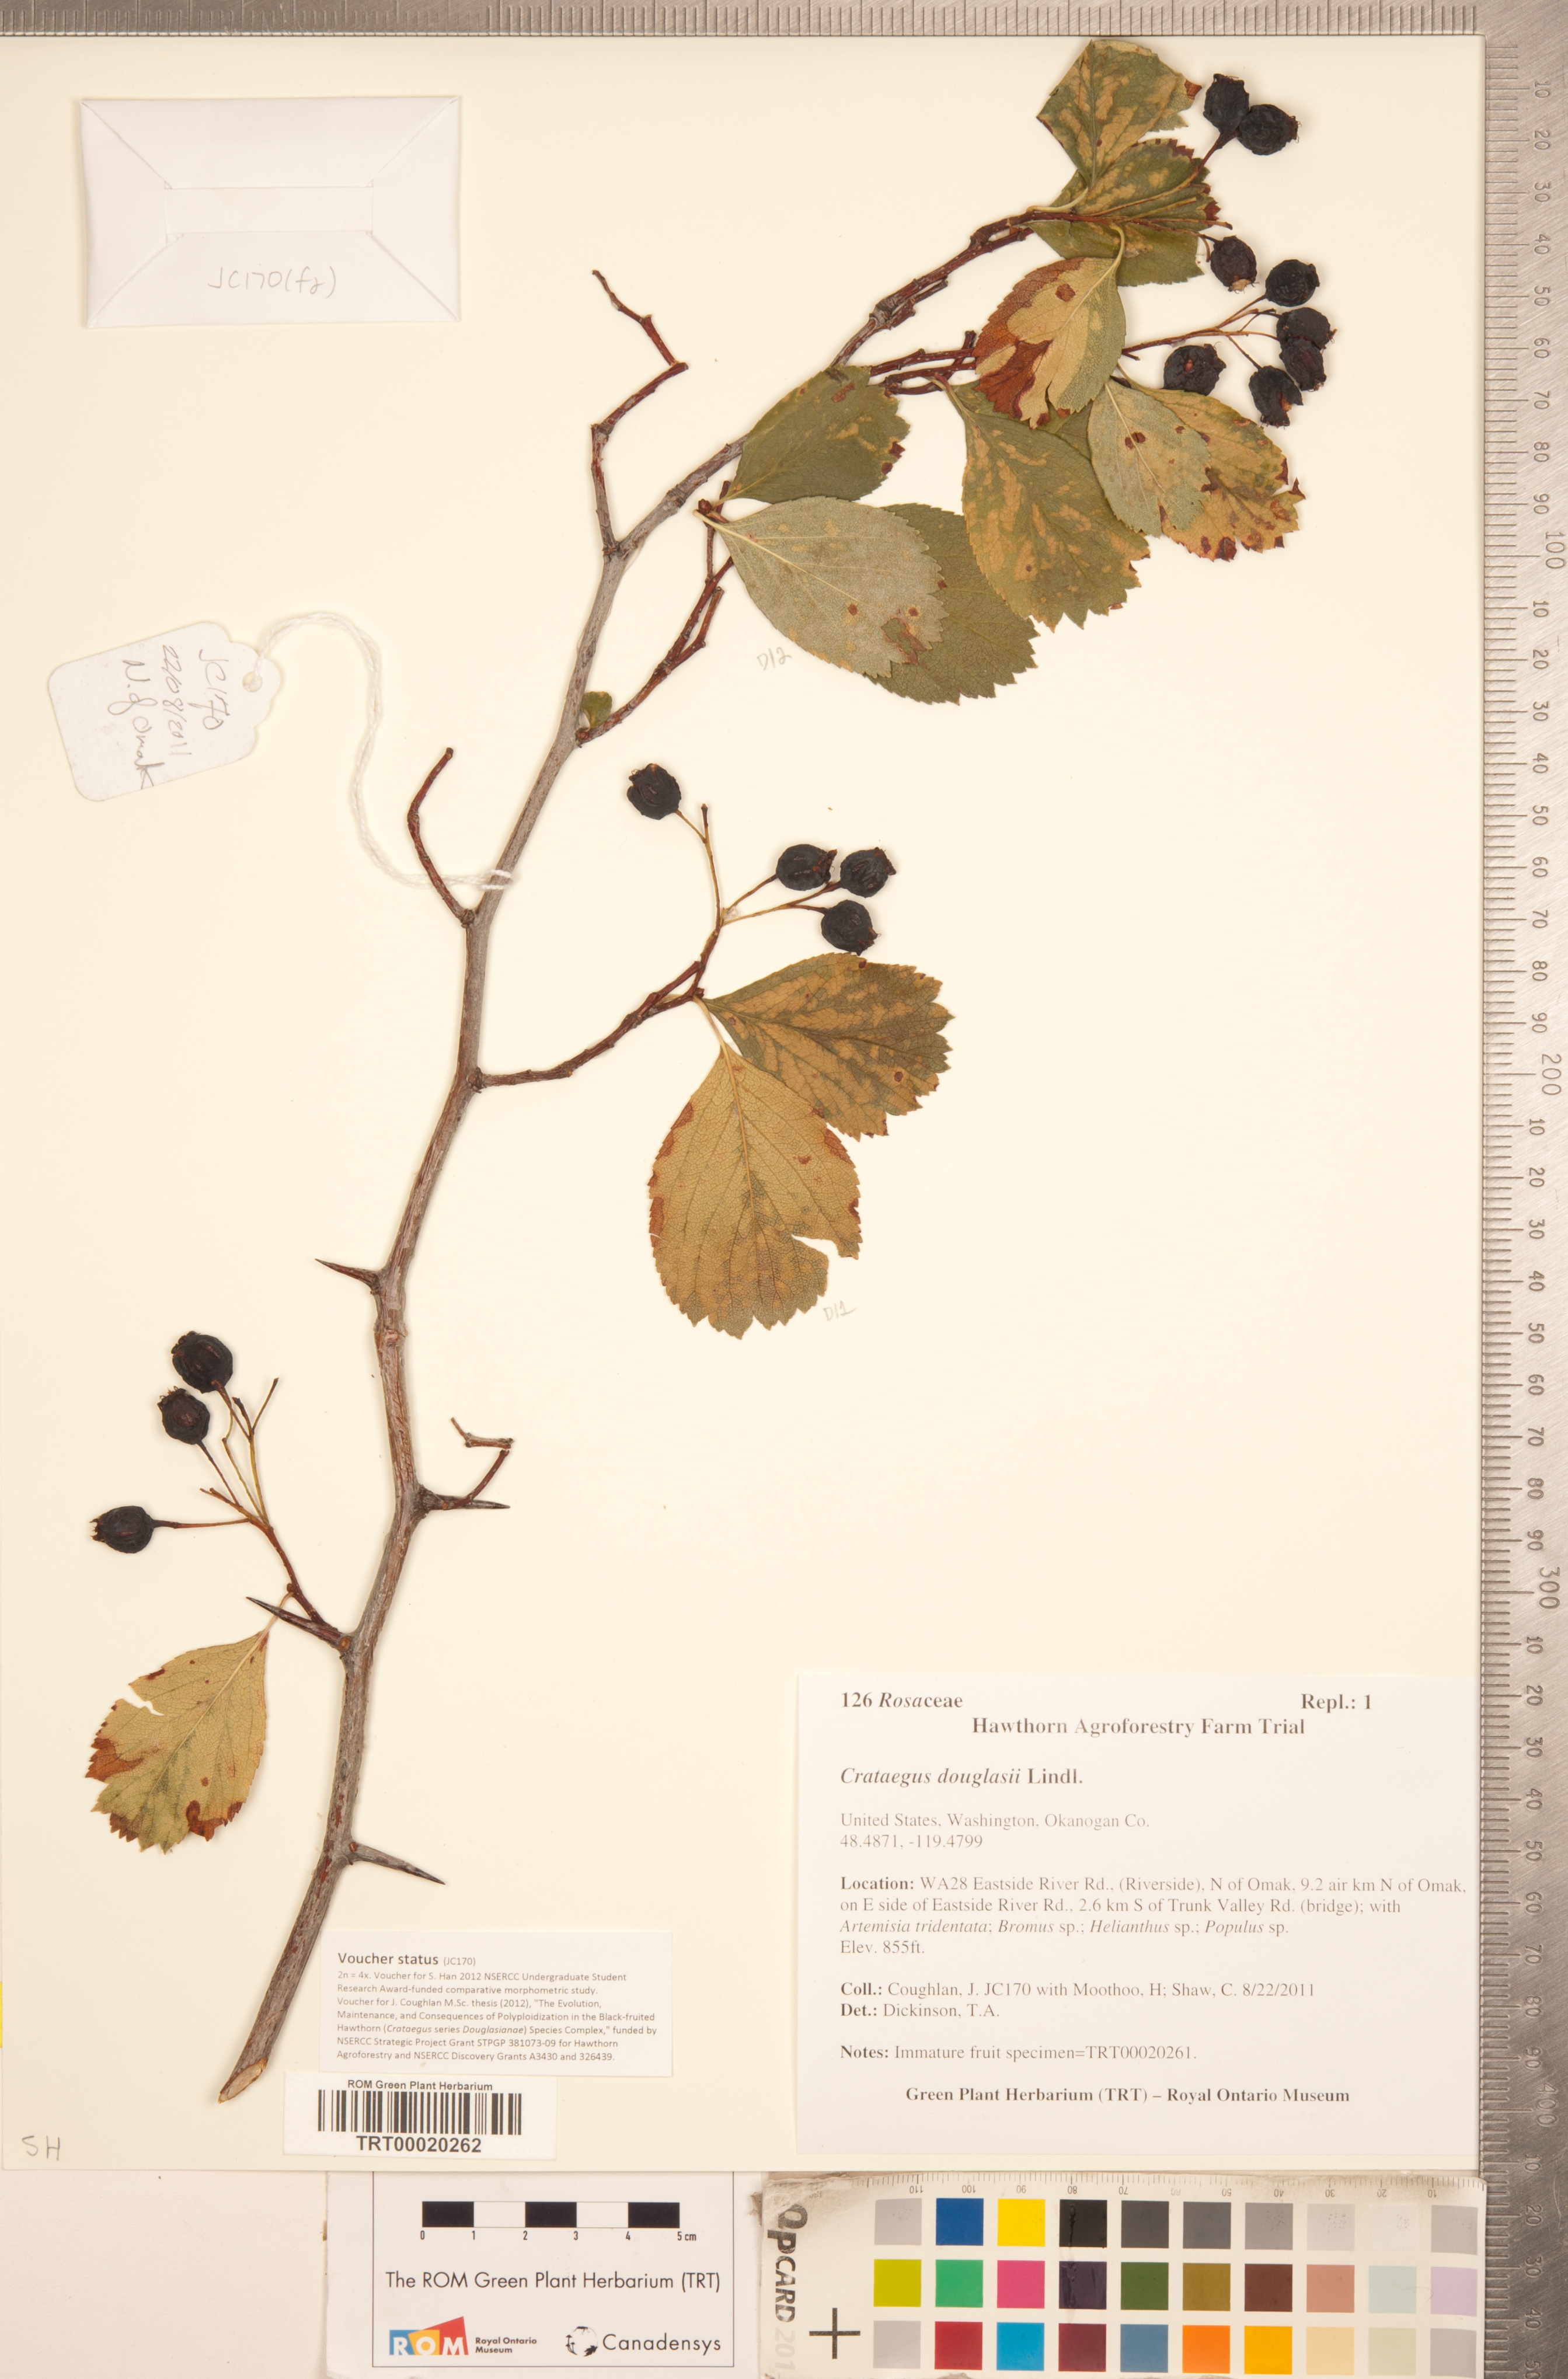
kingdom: Plantae
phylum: Tracheophyta
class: Magnoliopsida
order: Rosales
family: Rosaceae
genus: Crataegus
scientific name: Crataegus douglasii
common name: Black hawthorn
